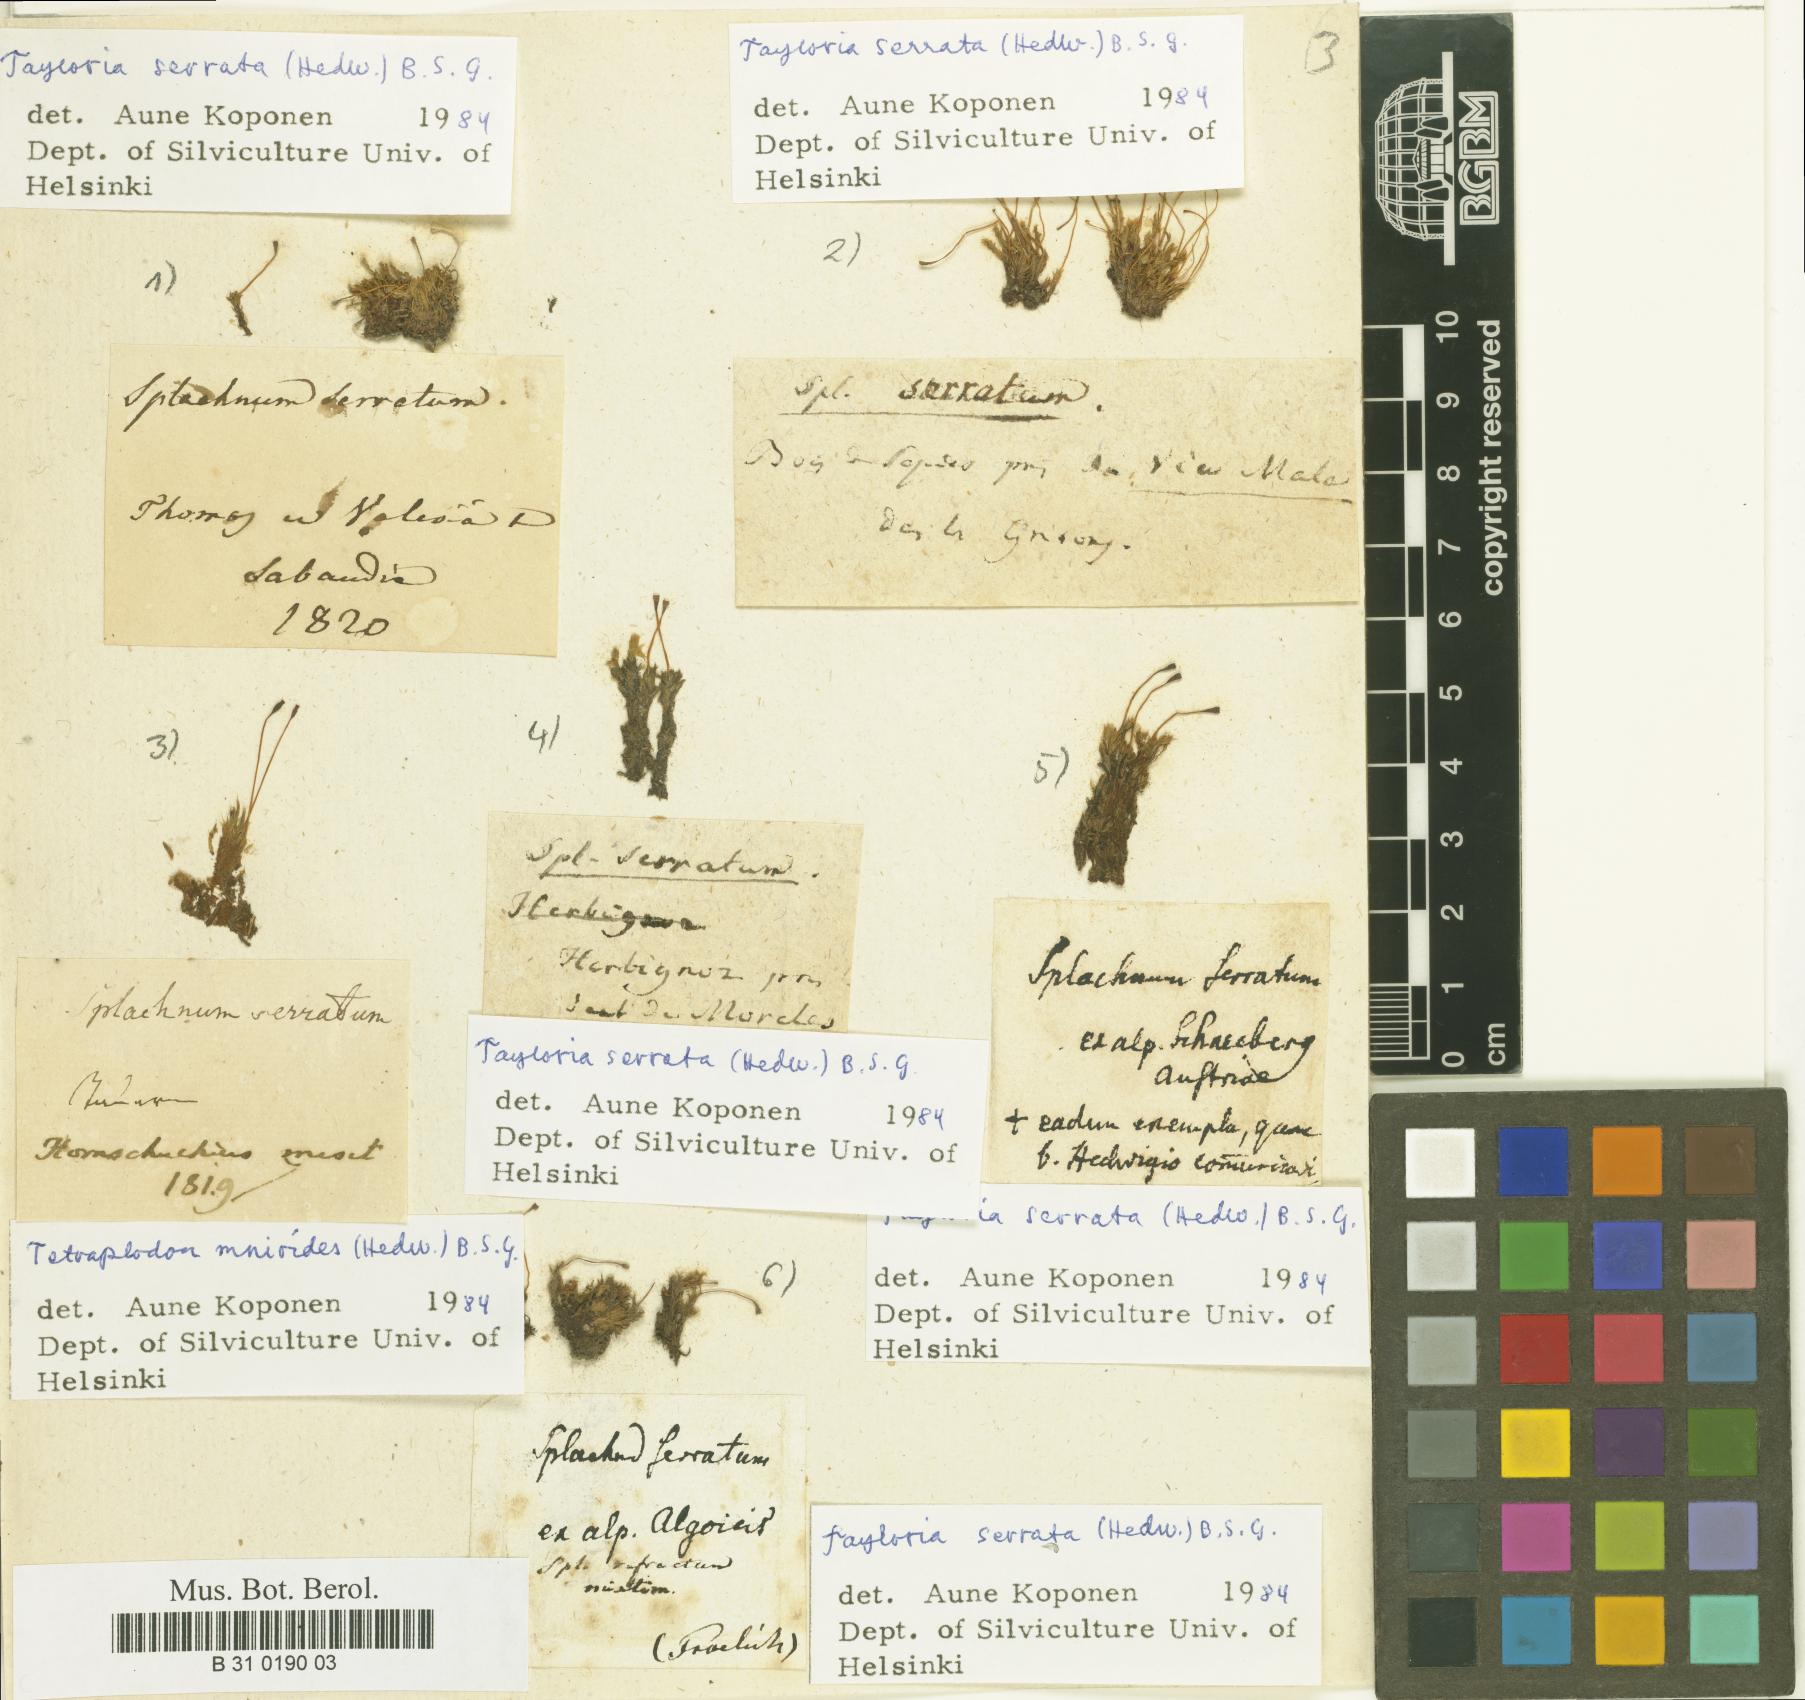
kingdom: Plantae
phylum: Bryophyta
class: Bryopsida
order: Splachnales
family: Splachnaceae
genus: Tayloria
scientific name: Tayloria serrata
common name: Serrate trumpet moss
